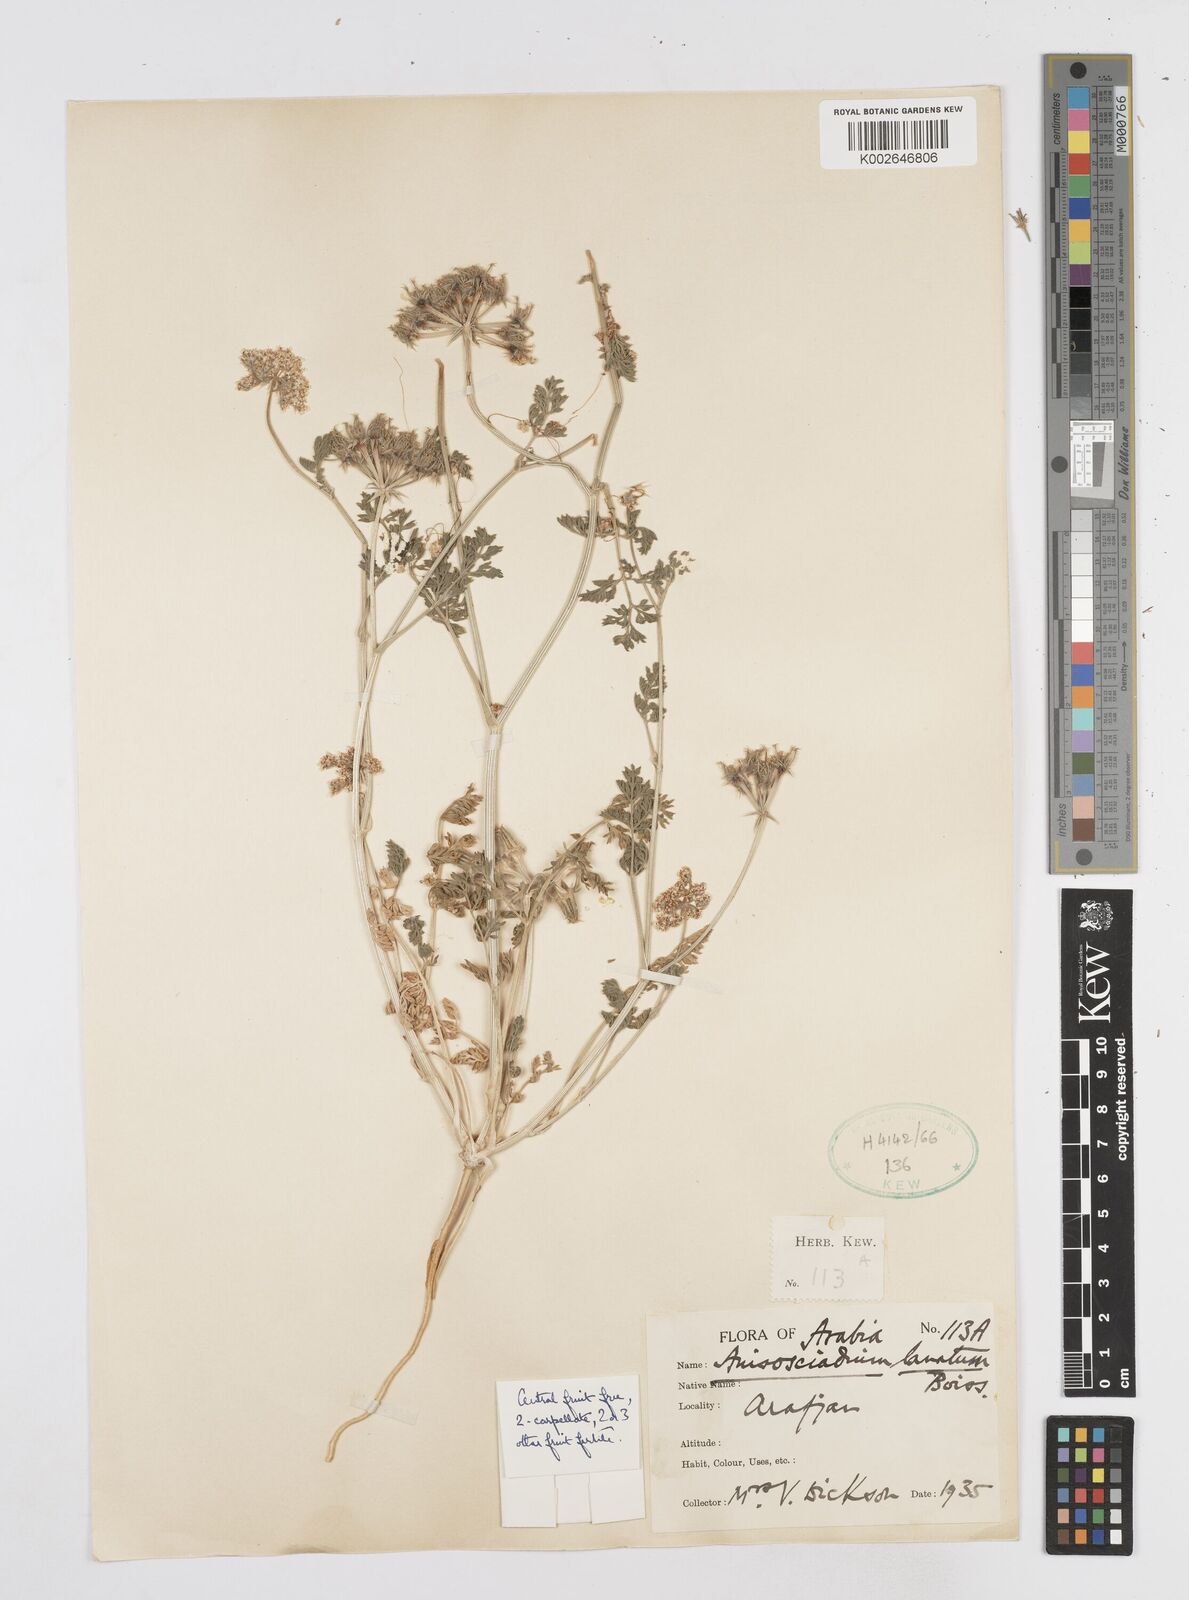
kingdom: Plantae
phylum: Tracheophyta
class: Magnoliopsida
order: Apiales
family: Apiaceae
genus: Anisosciadium
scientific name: Anisosciadium lanatum
